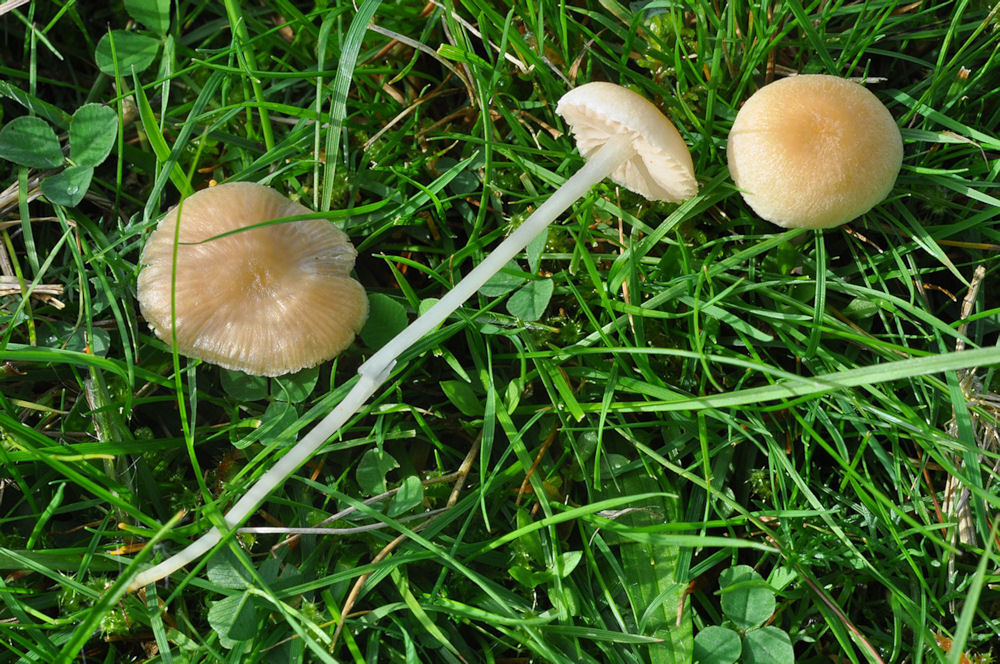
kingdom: Fungi
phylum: Basidiomycota
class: Agaricomycetes
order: Agaricales
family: Entolomataceae
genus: Entoloma
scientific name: Entoloma sericellum
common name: silkehvid rødblad
